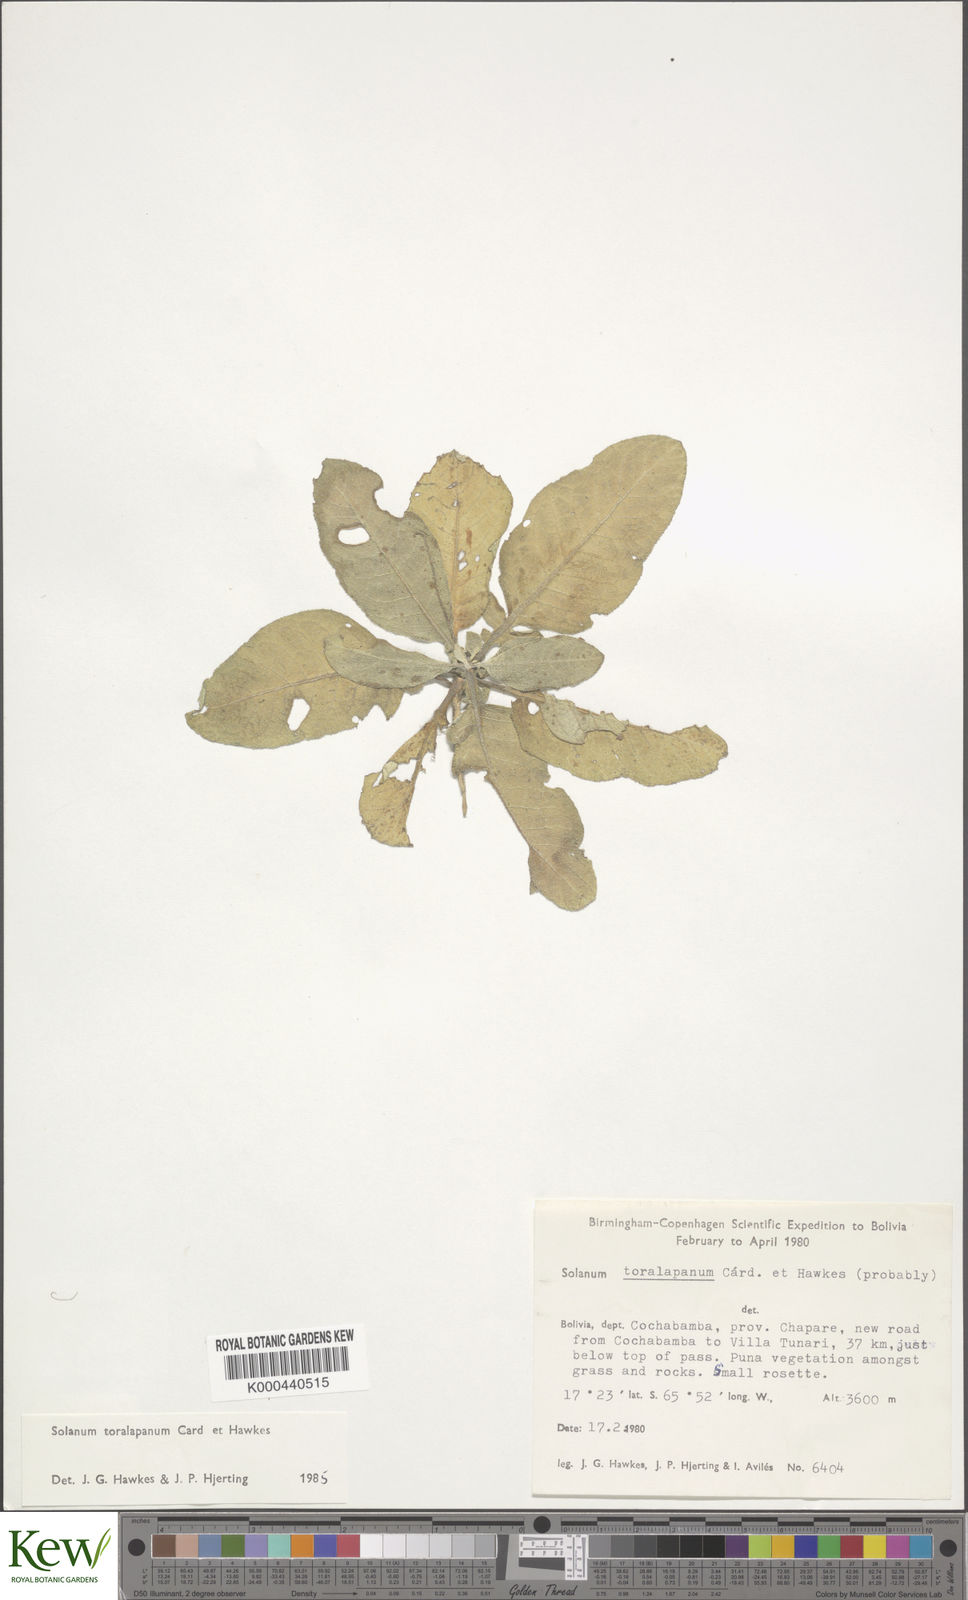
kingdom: Plantae
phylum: Tracheophyta
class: Magnoliopsida
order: Solanales
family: Solanaceae
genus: Solanum
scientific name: Solanum boliviense
